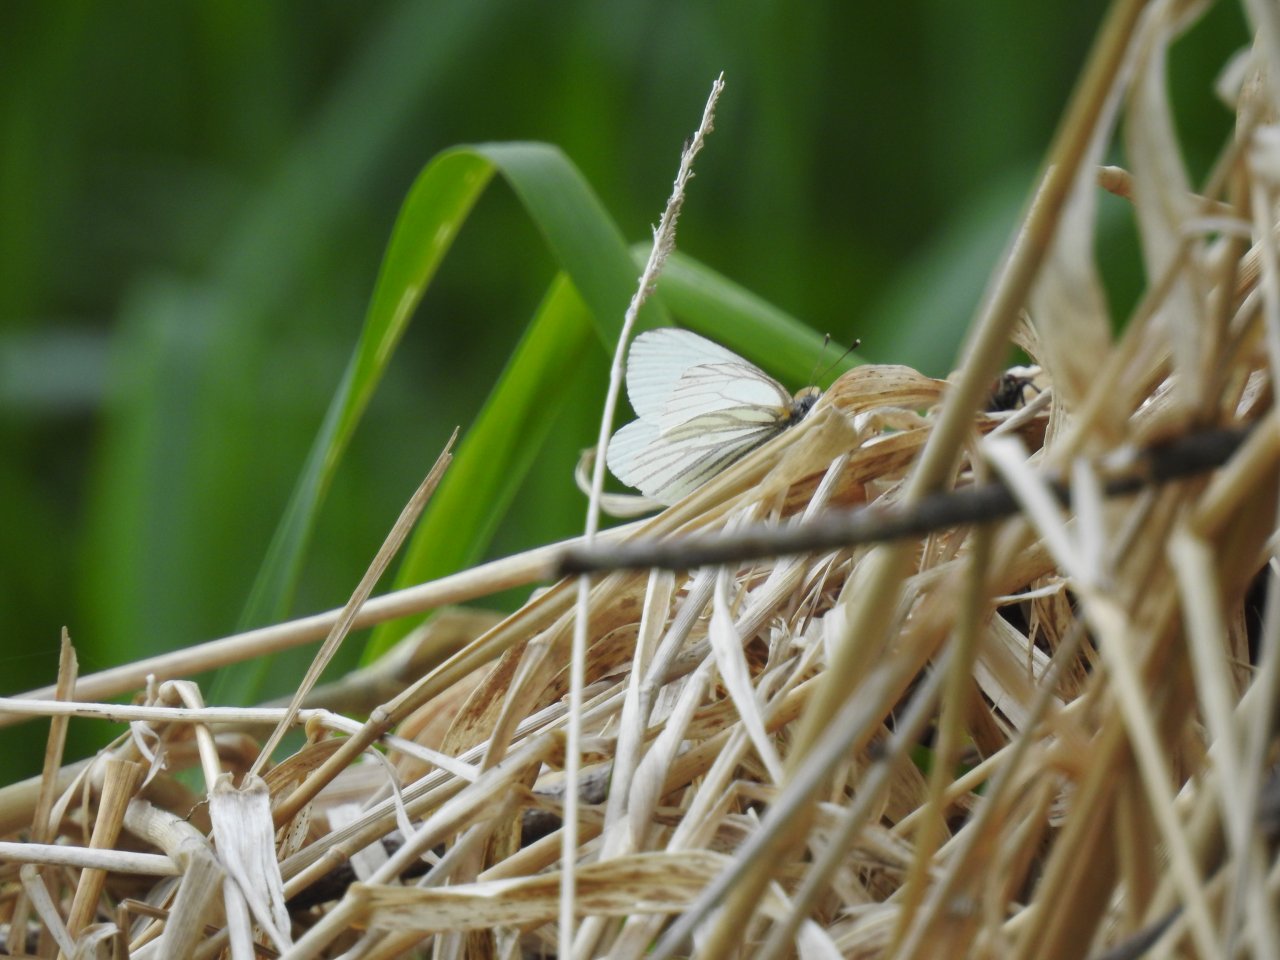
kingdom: Animalia
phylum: Arthropoda
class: Insecta
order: Lepidoptera
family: Pieridae
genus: Pieris
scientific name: Pieris oleracea
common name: Mustard White
